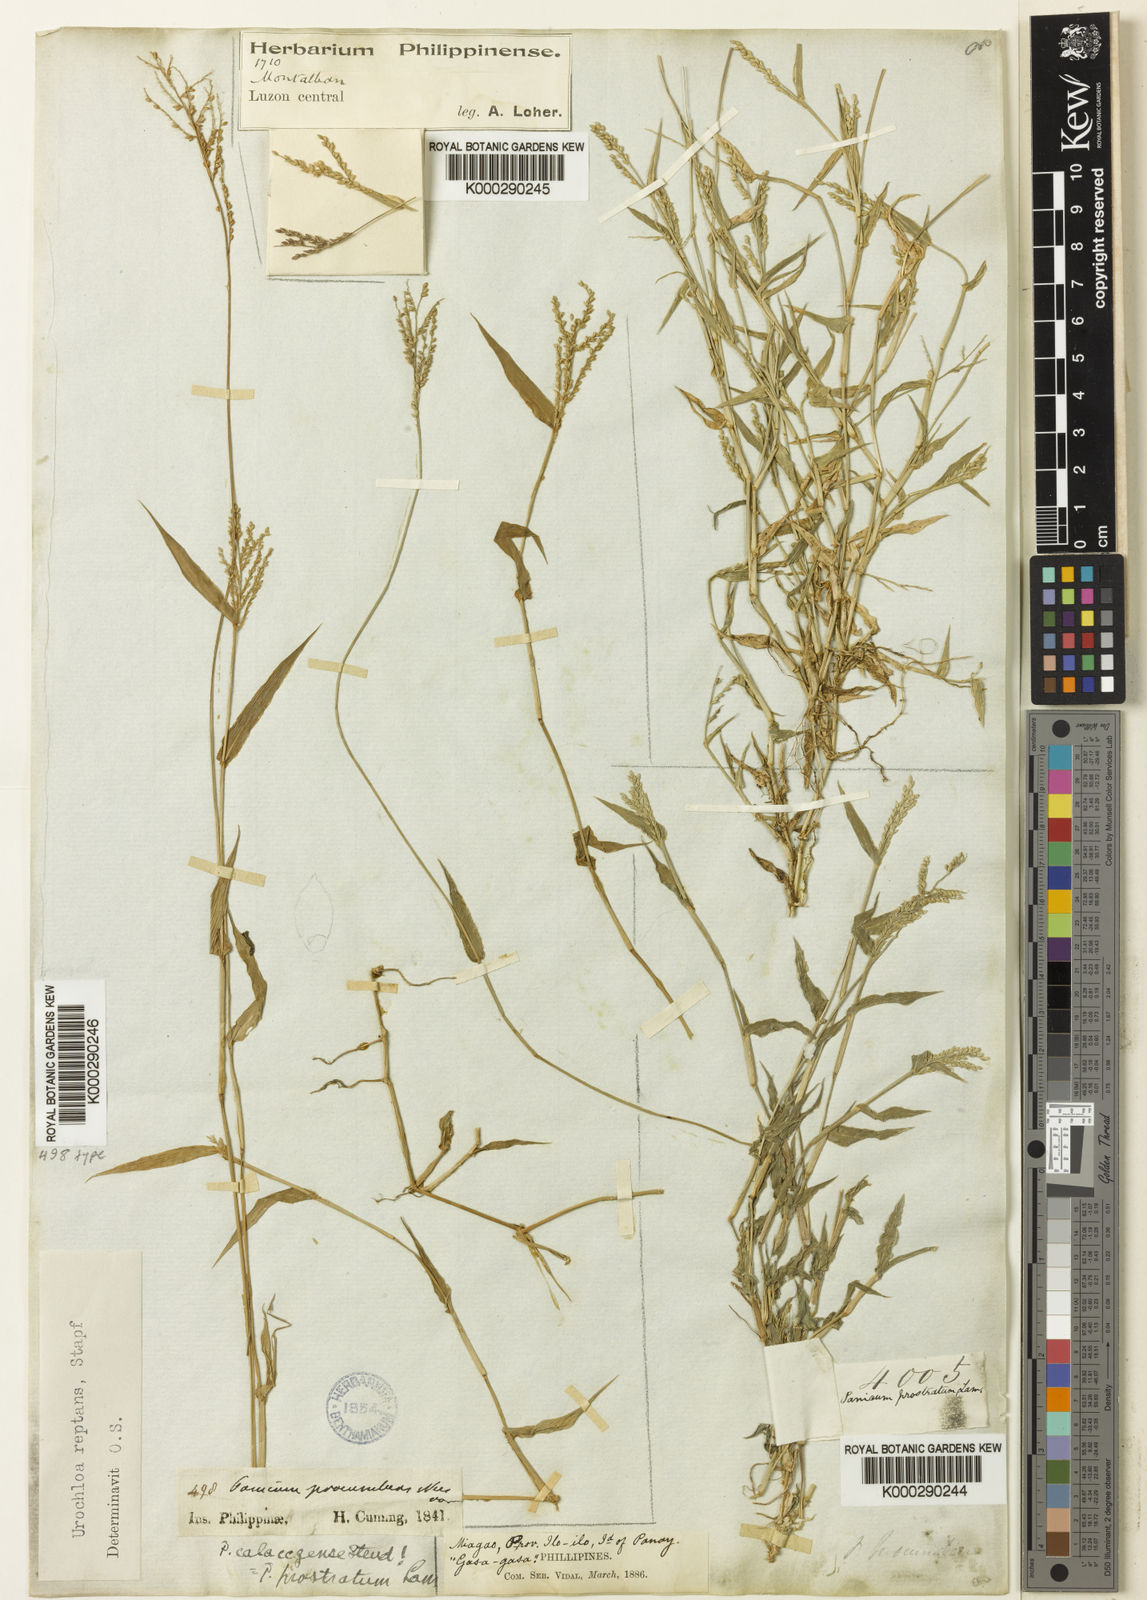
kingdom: Plantae
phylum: Tracheophyta
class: Liliopsida
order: Poales
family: Poaceae
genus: Urochloa
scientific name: Urochloa reptans
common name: Sprawling signalgrass
